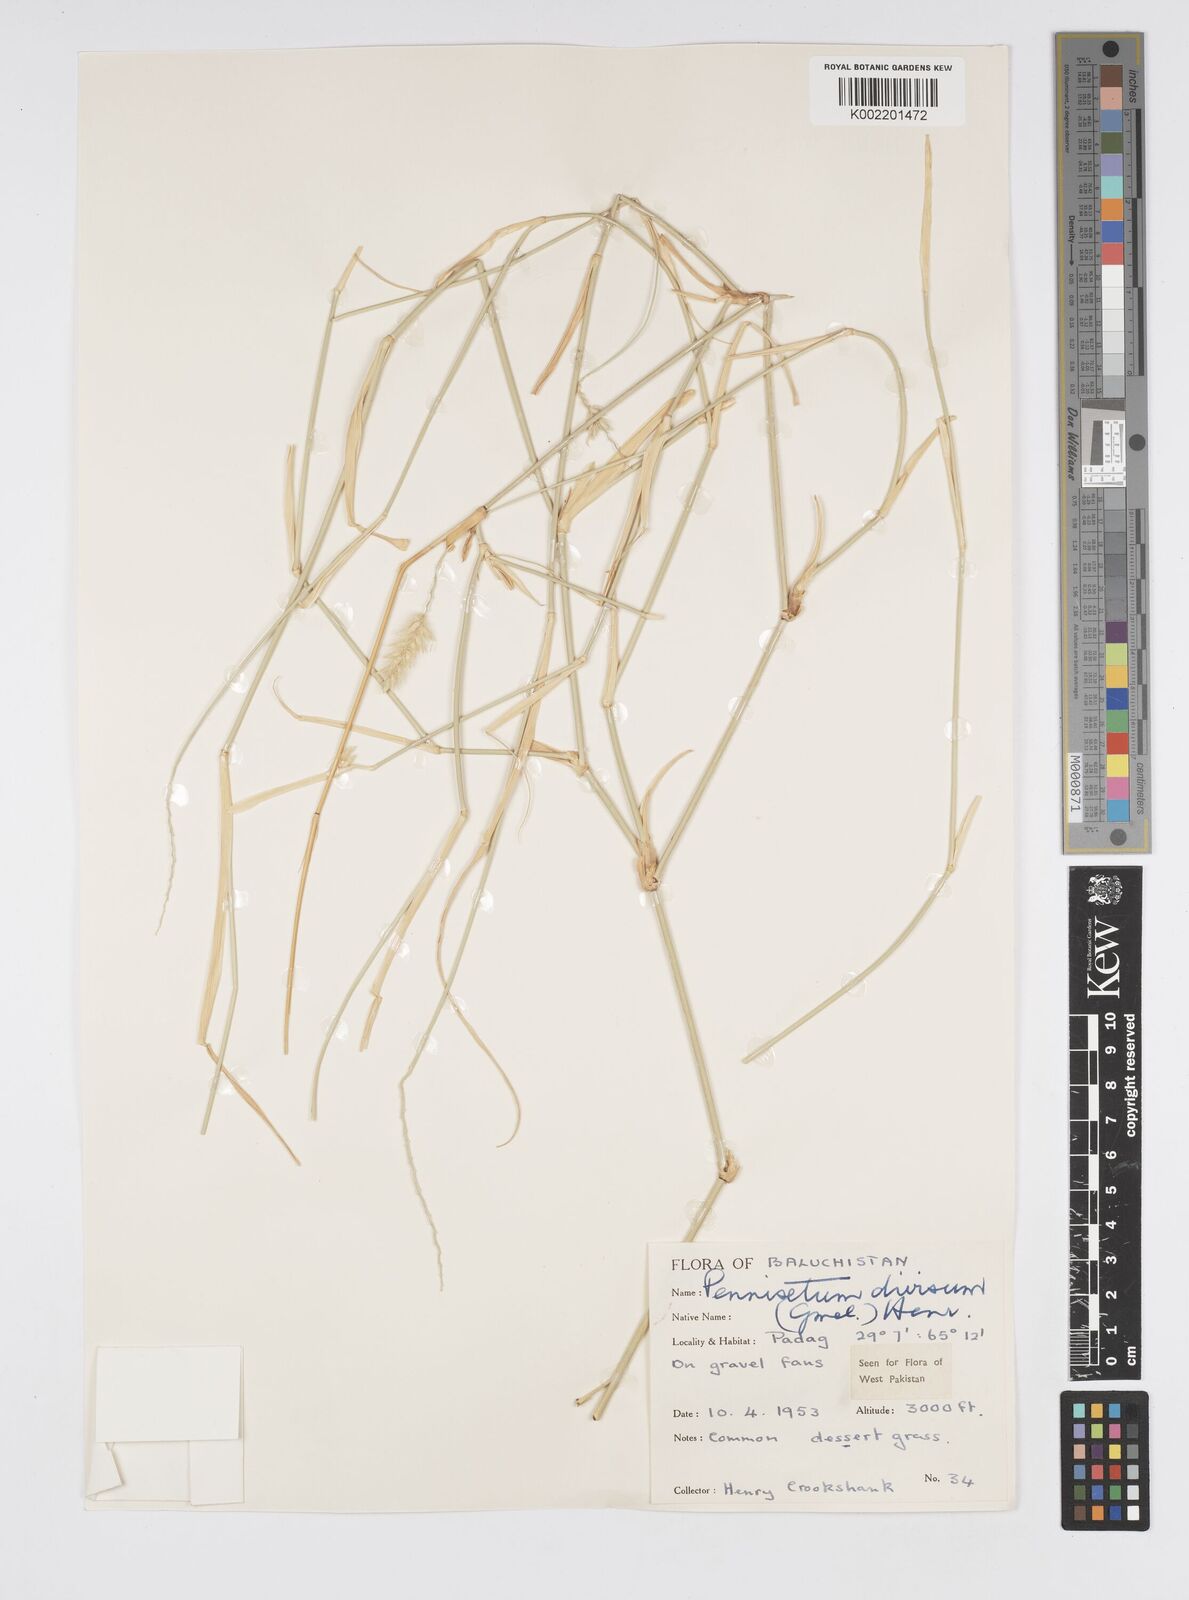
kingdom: Plantae
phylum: Tracheophyta
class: Liliopsida
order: Poales
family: Poaceae
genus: Cenchrus
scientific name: Cenchrus divisus
